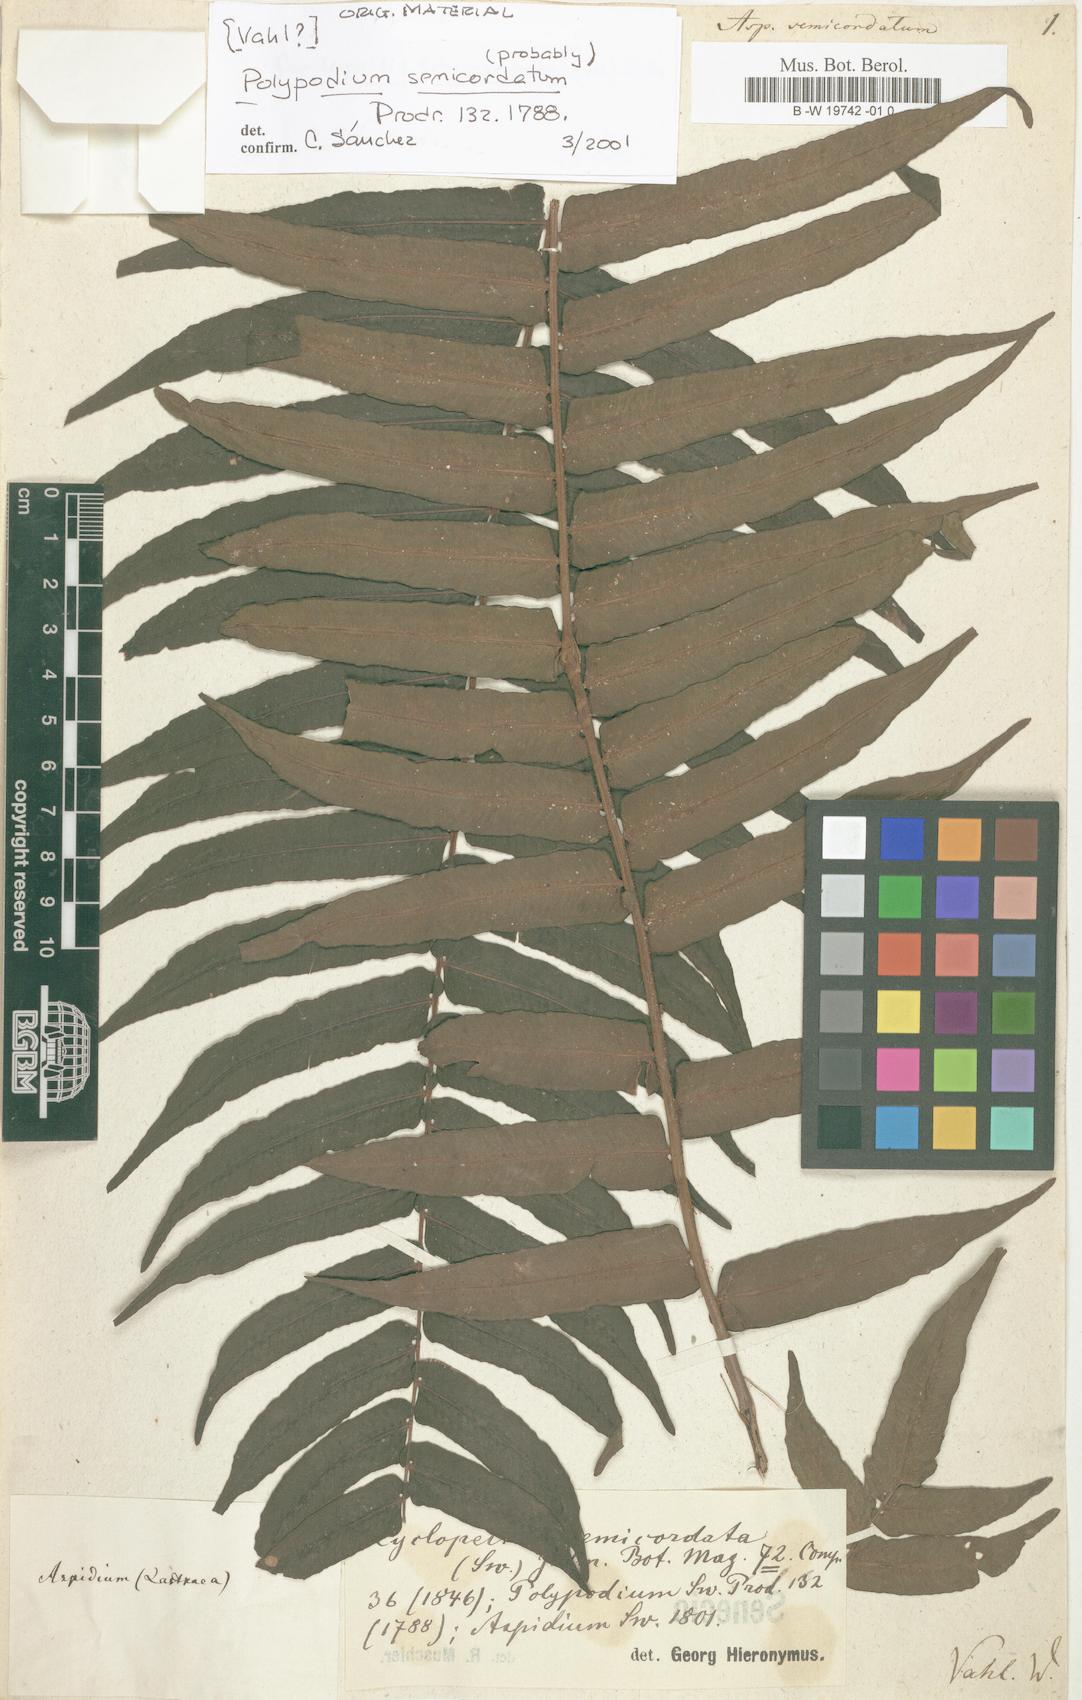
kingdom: Plantae
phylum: Tracheophyta
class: Polypodiopsida
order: Polypodiales
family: Lomariopsidaceae
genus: Cyclopeltis
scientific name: Cyclopeltis semicordata
